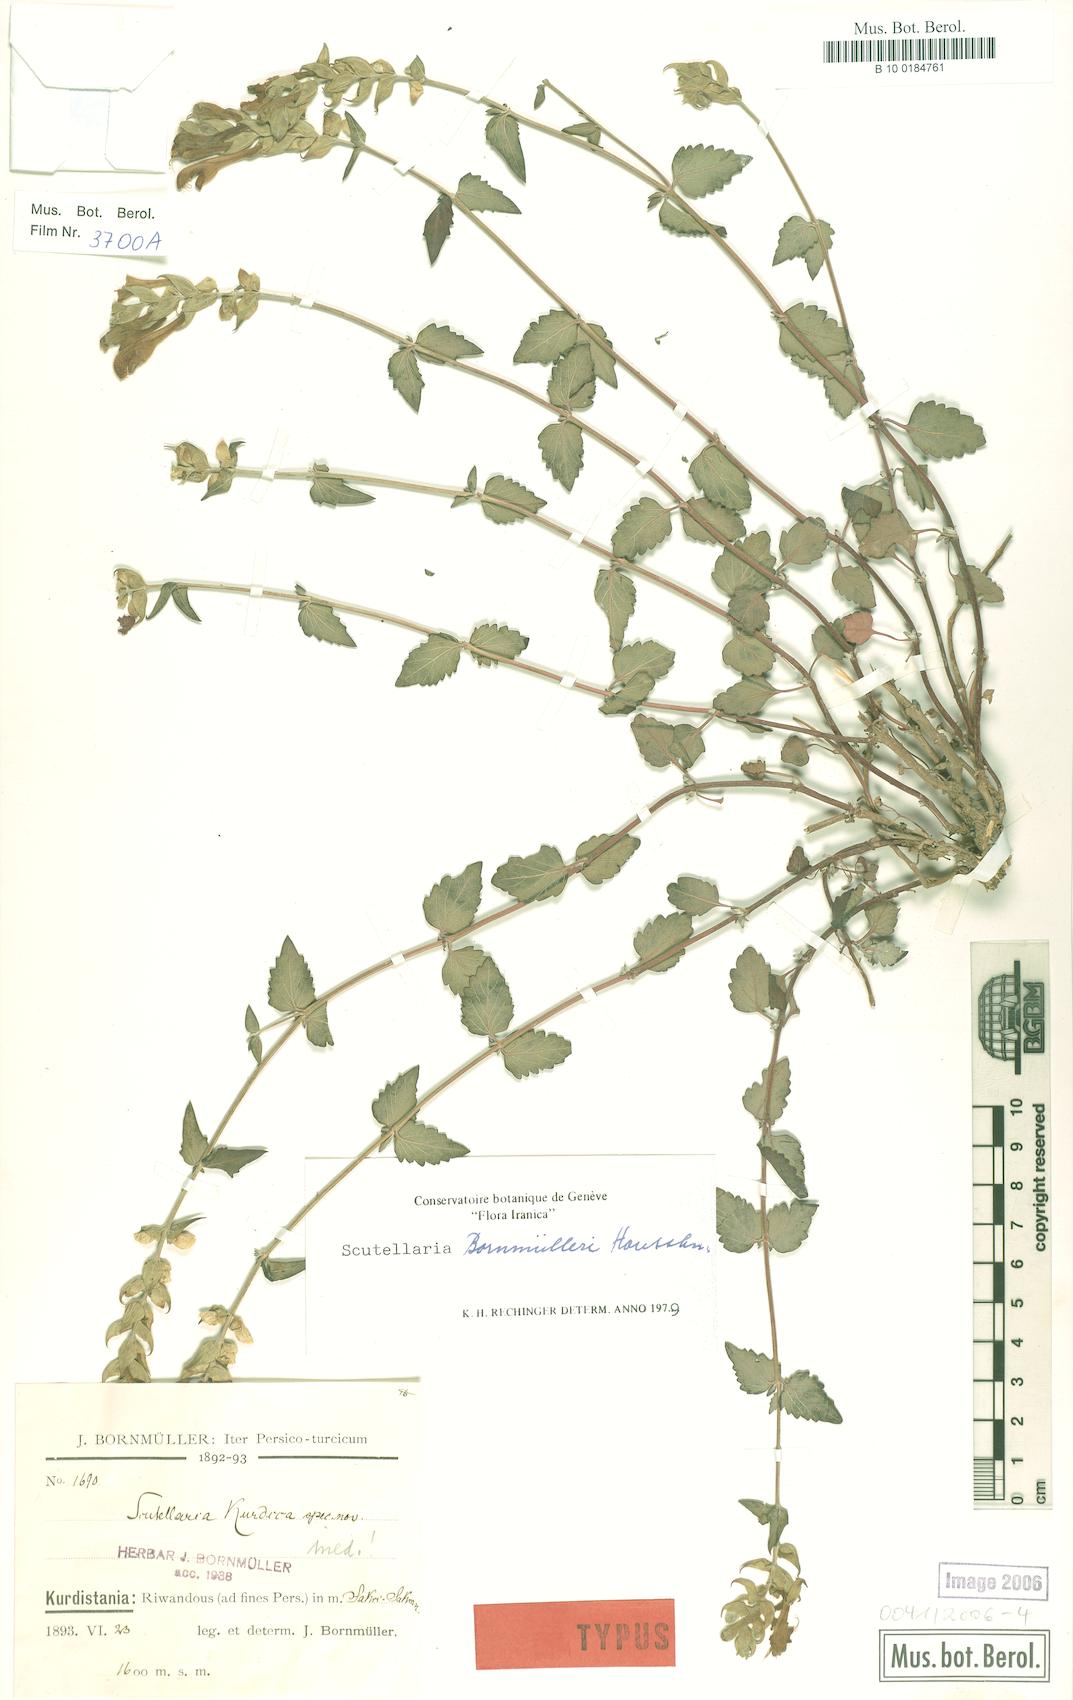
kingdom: Plantae
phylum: Tracheophyta
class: Magnoliopsida
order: Lamiales
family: Lamiaceae
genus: Scutellaria
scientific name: Scutellaria bornmuelleri
